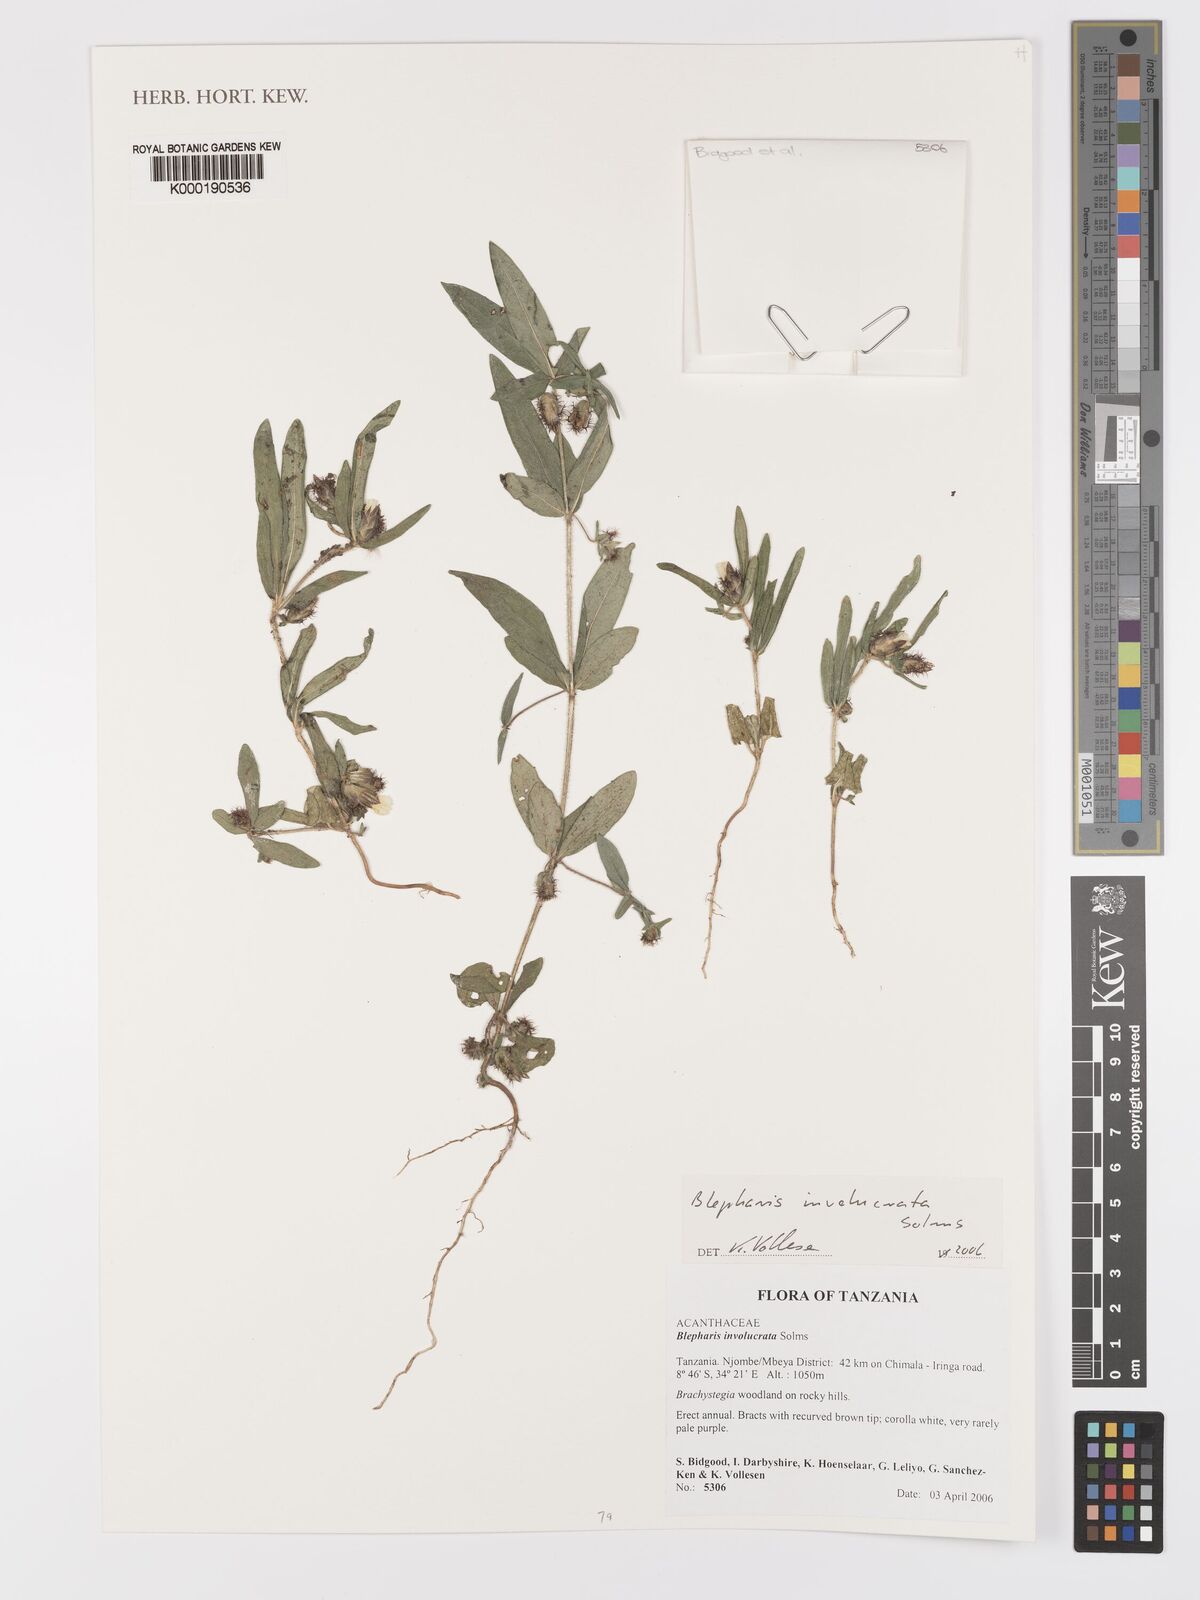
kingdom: Plantae
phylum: Tracheophyta
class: Magnoliopsida
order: Lamiales
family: Acanthaceae
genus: Blepharis
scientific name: Blepharis
